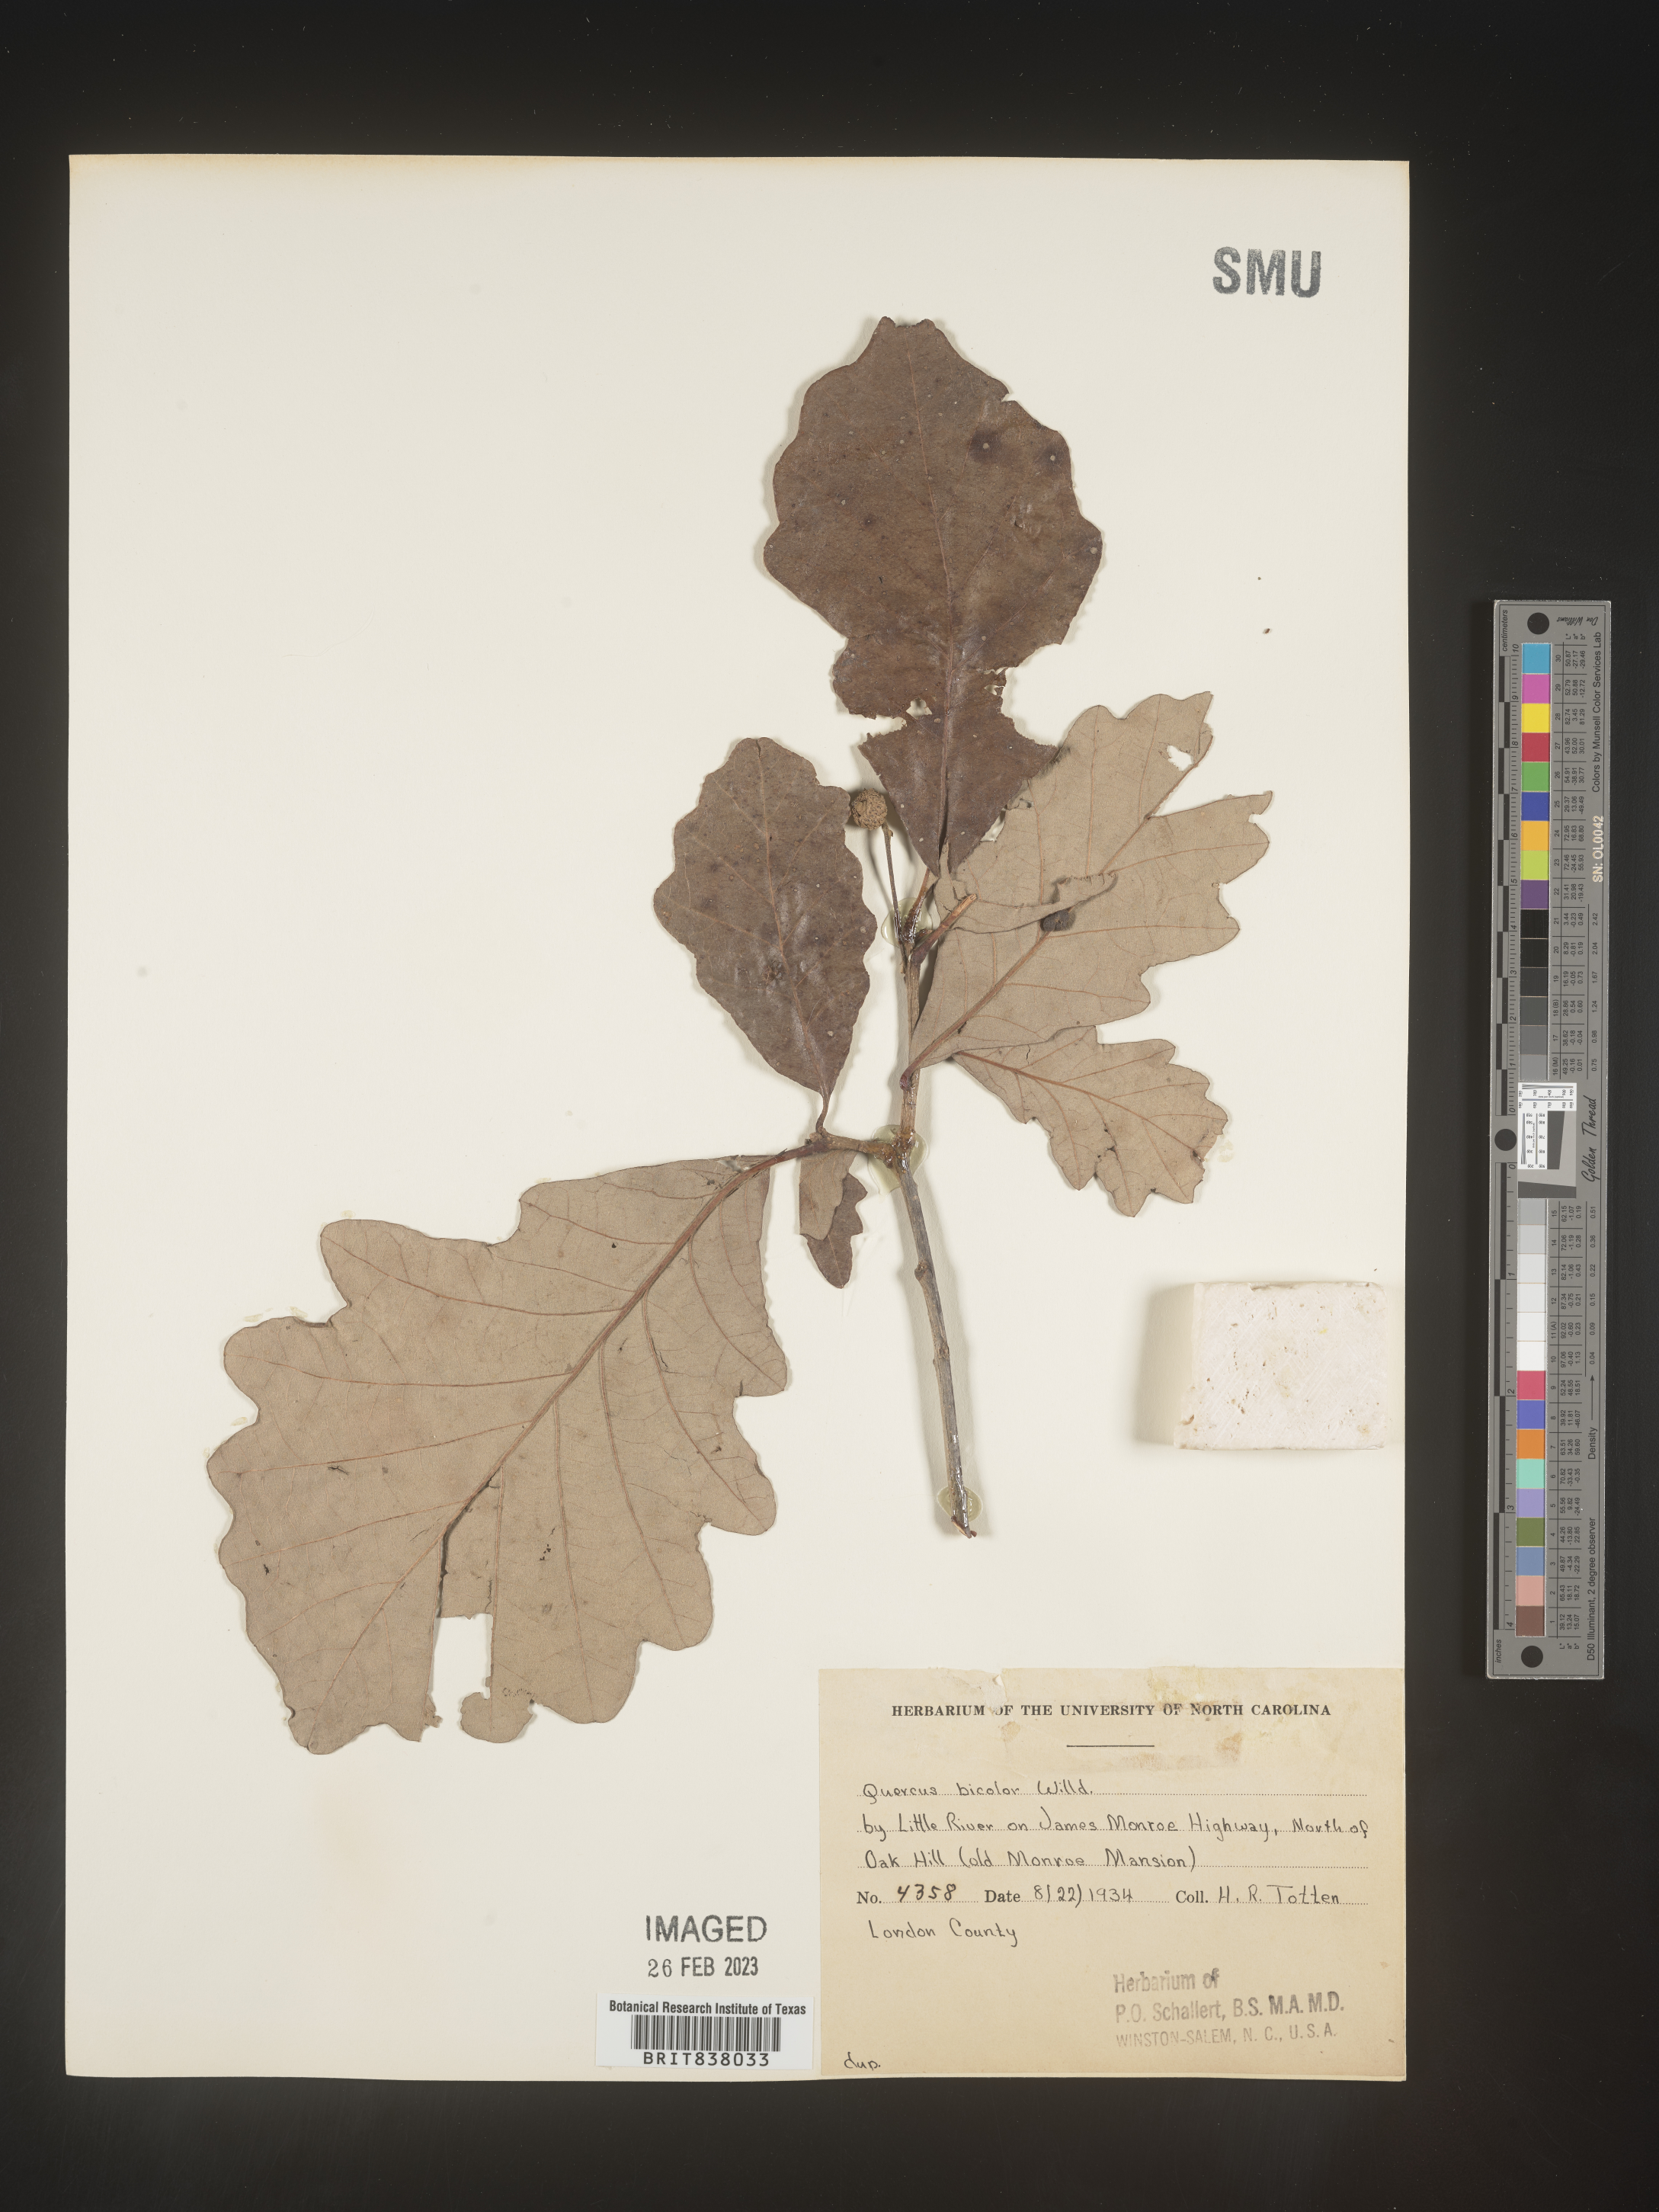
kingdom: Plantae
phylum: Tracheophyta
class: Magnoliopsida
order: Fagales
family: Fagaceae
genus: Quercus
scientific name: Quercus bicolor
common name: Swamp white oak
